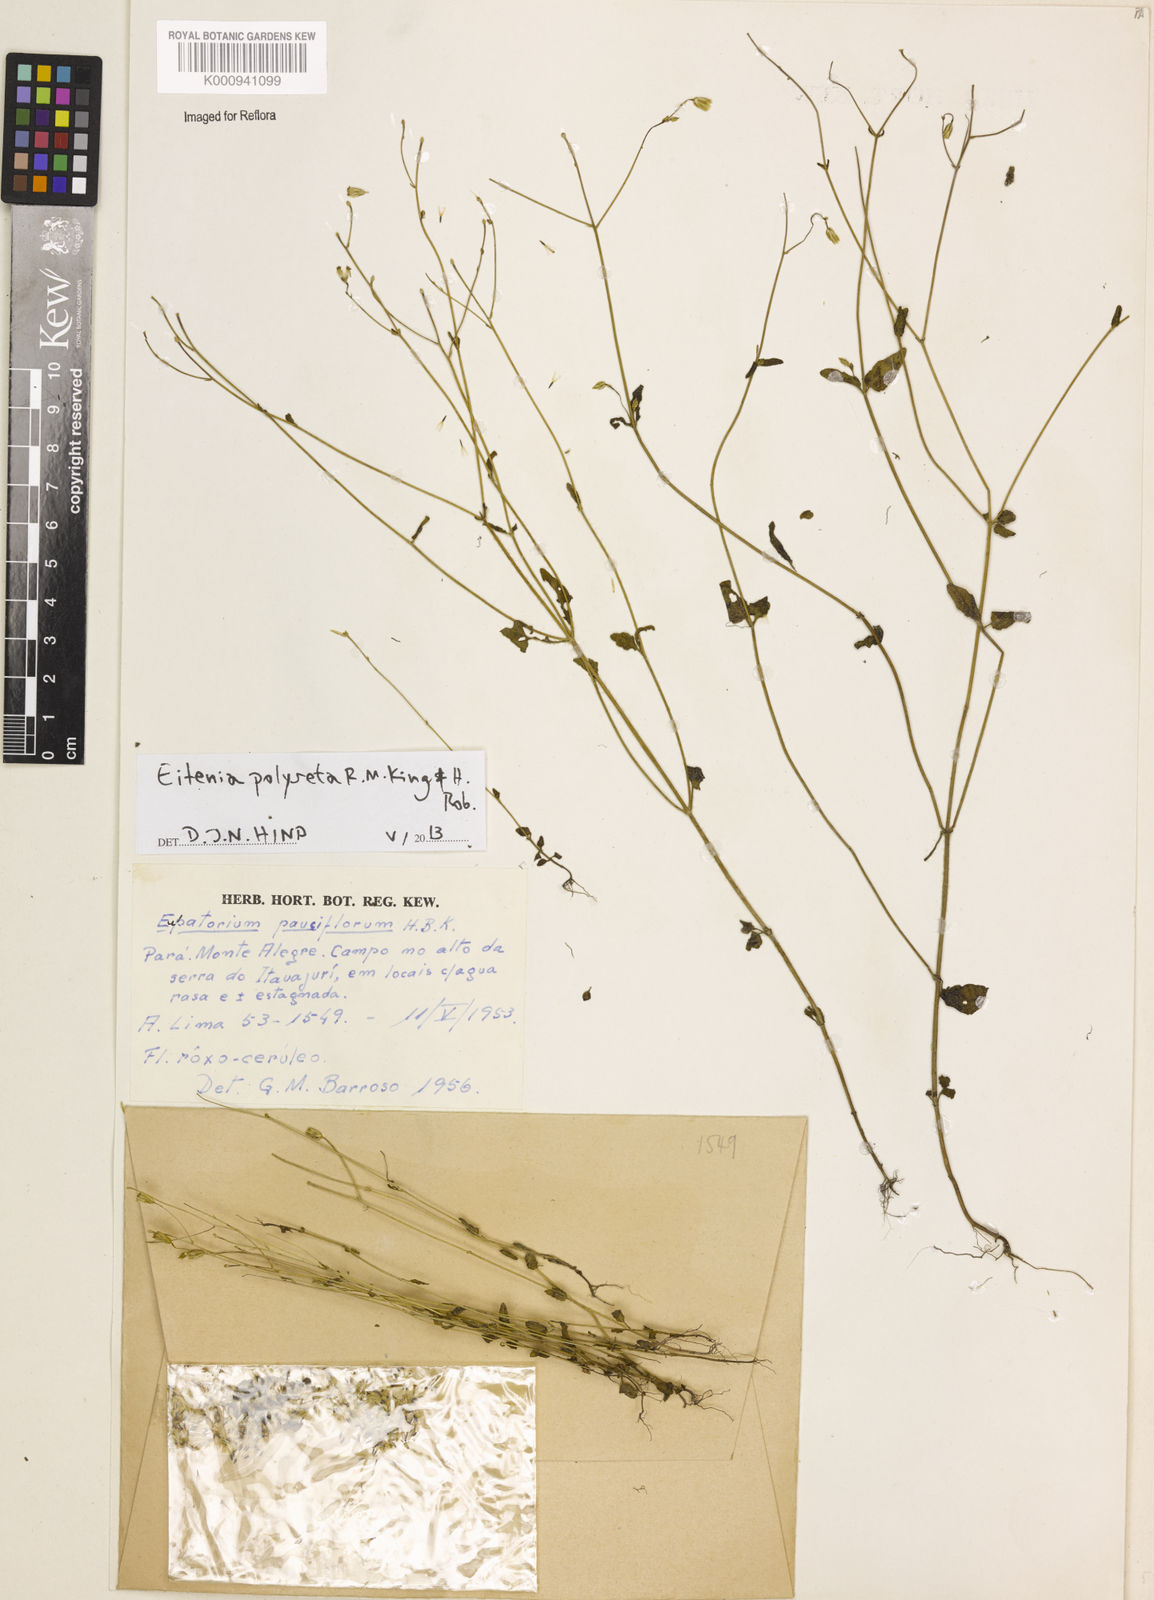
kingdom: Plantae
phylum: Tracheophyta
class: Magnoliopsida
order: Asterales
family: Asteraceae
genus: Eitenia
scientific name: Eitenia polyseta
